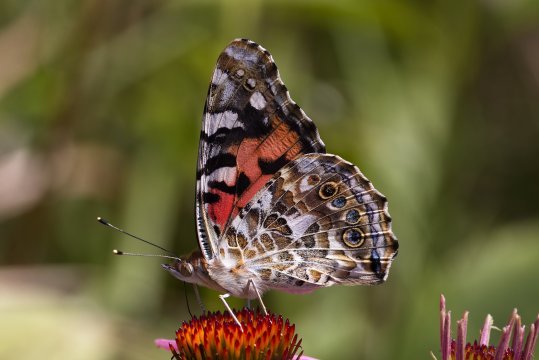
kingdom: Animalia
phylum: Arthropoda
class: Insecta
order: Lepidoptera
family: Nymphalidae
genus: Vanessa
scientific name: Vanessa cardui
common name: Painted Lady
